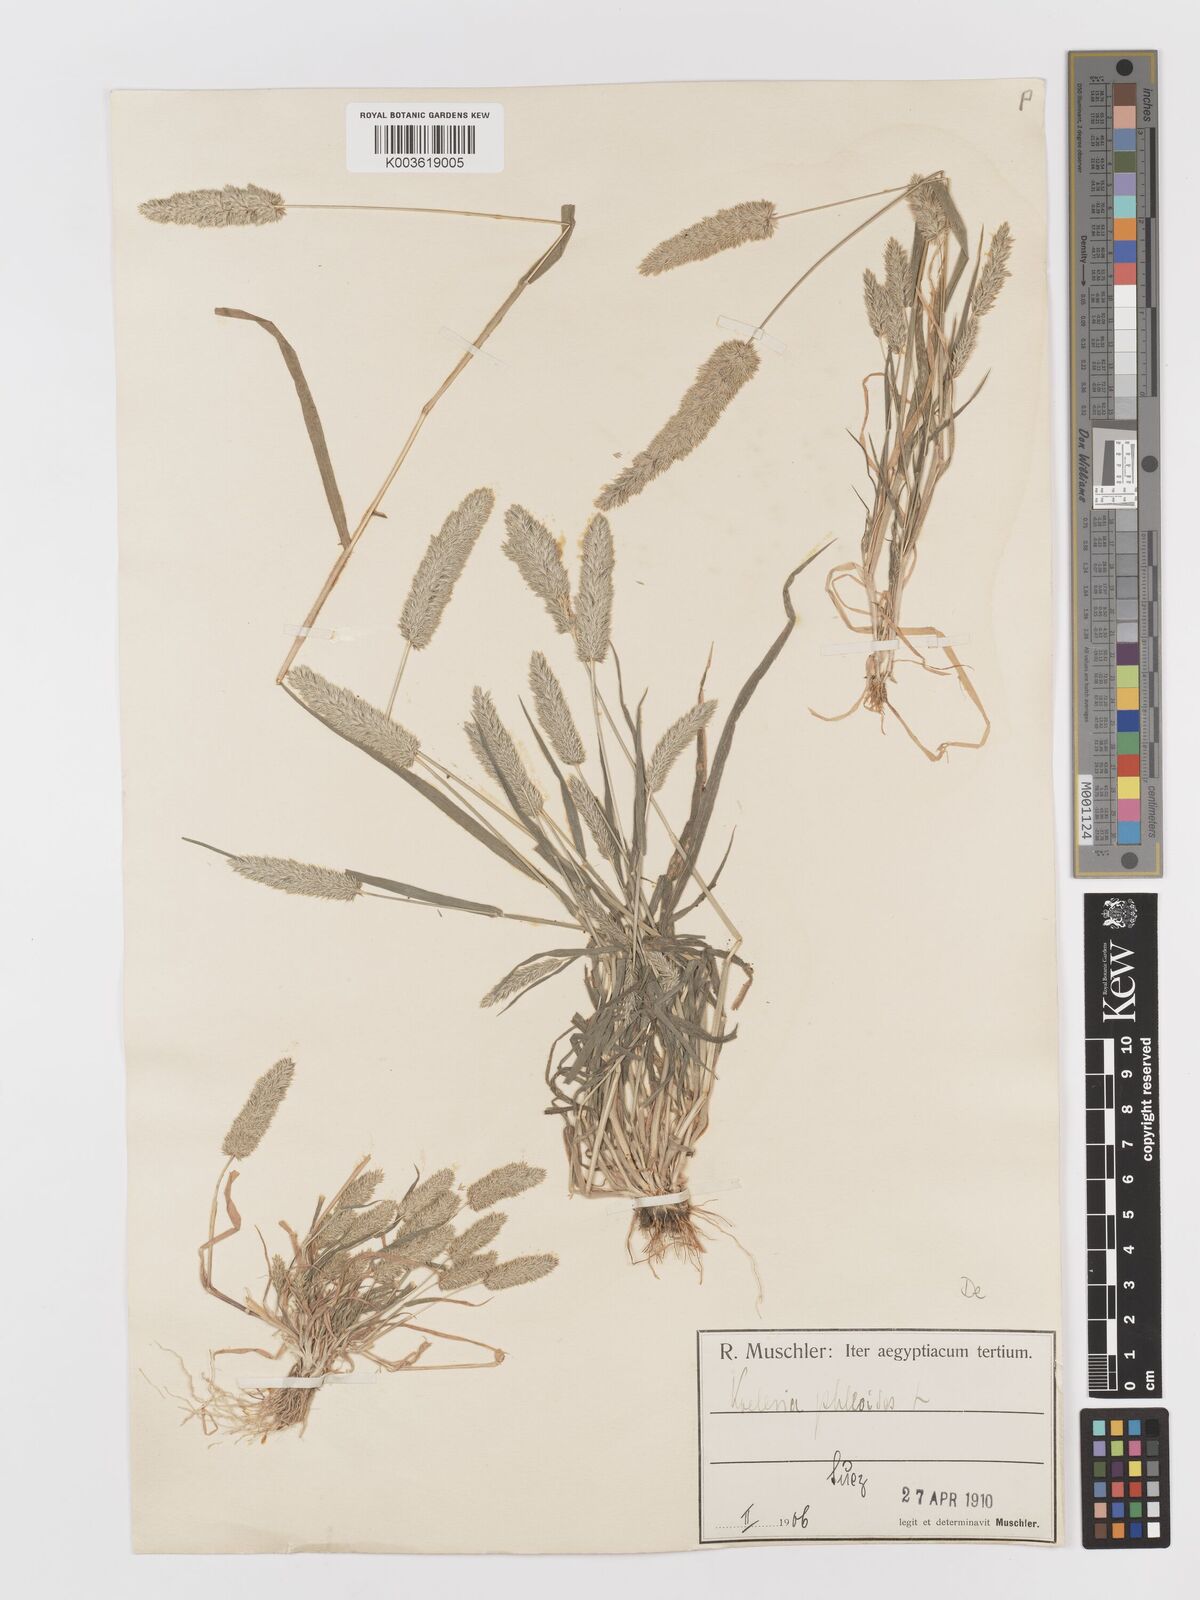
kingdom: Plantae
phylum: Tracheophyta
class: Liliopsida
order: Poales
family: Poaceae
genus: Rostraria
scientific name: Rostraria cristata
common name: Mediterranean hair-grass
